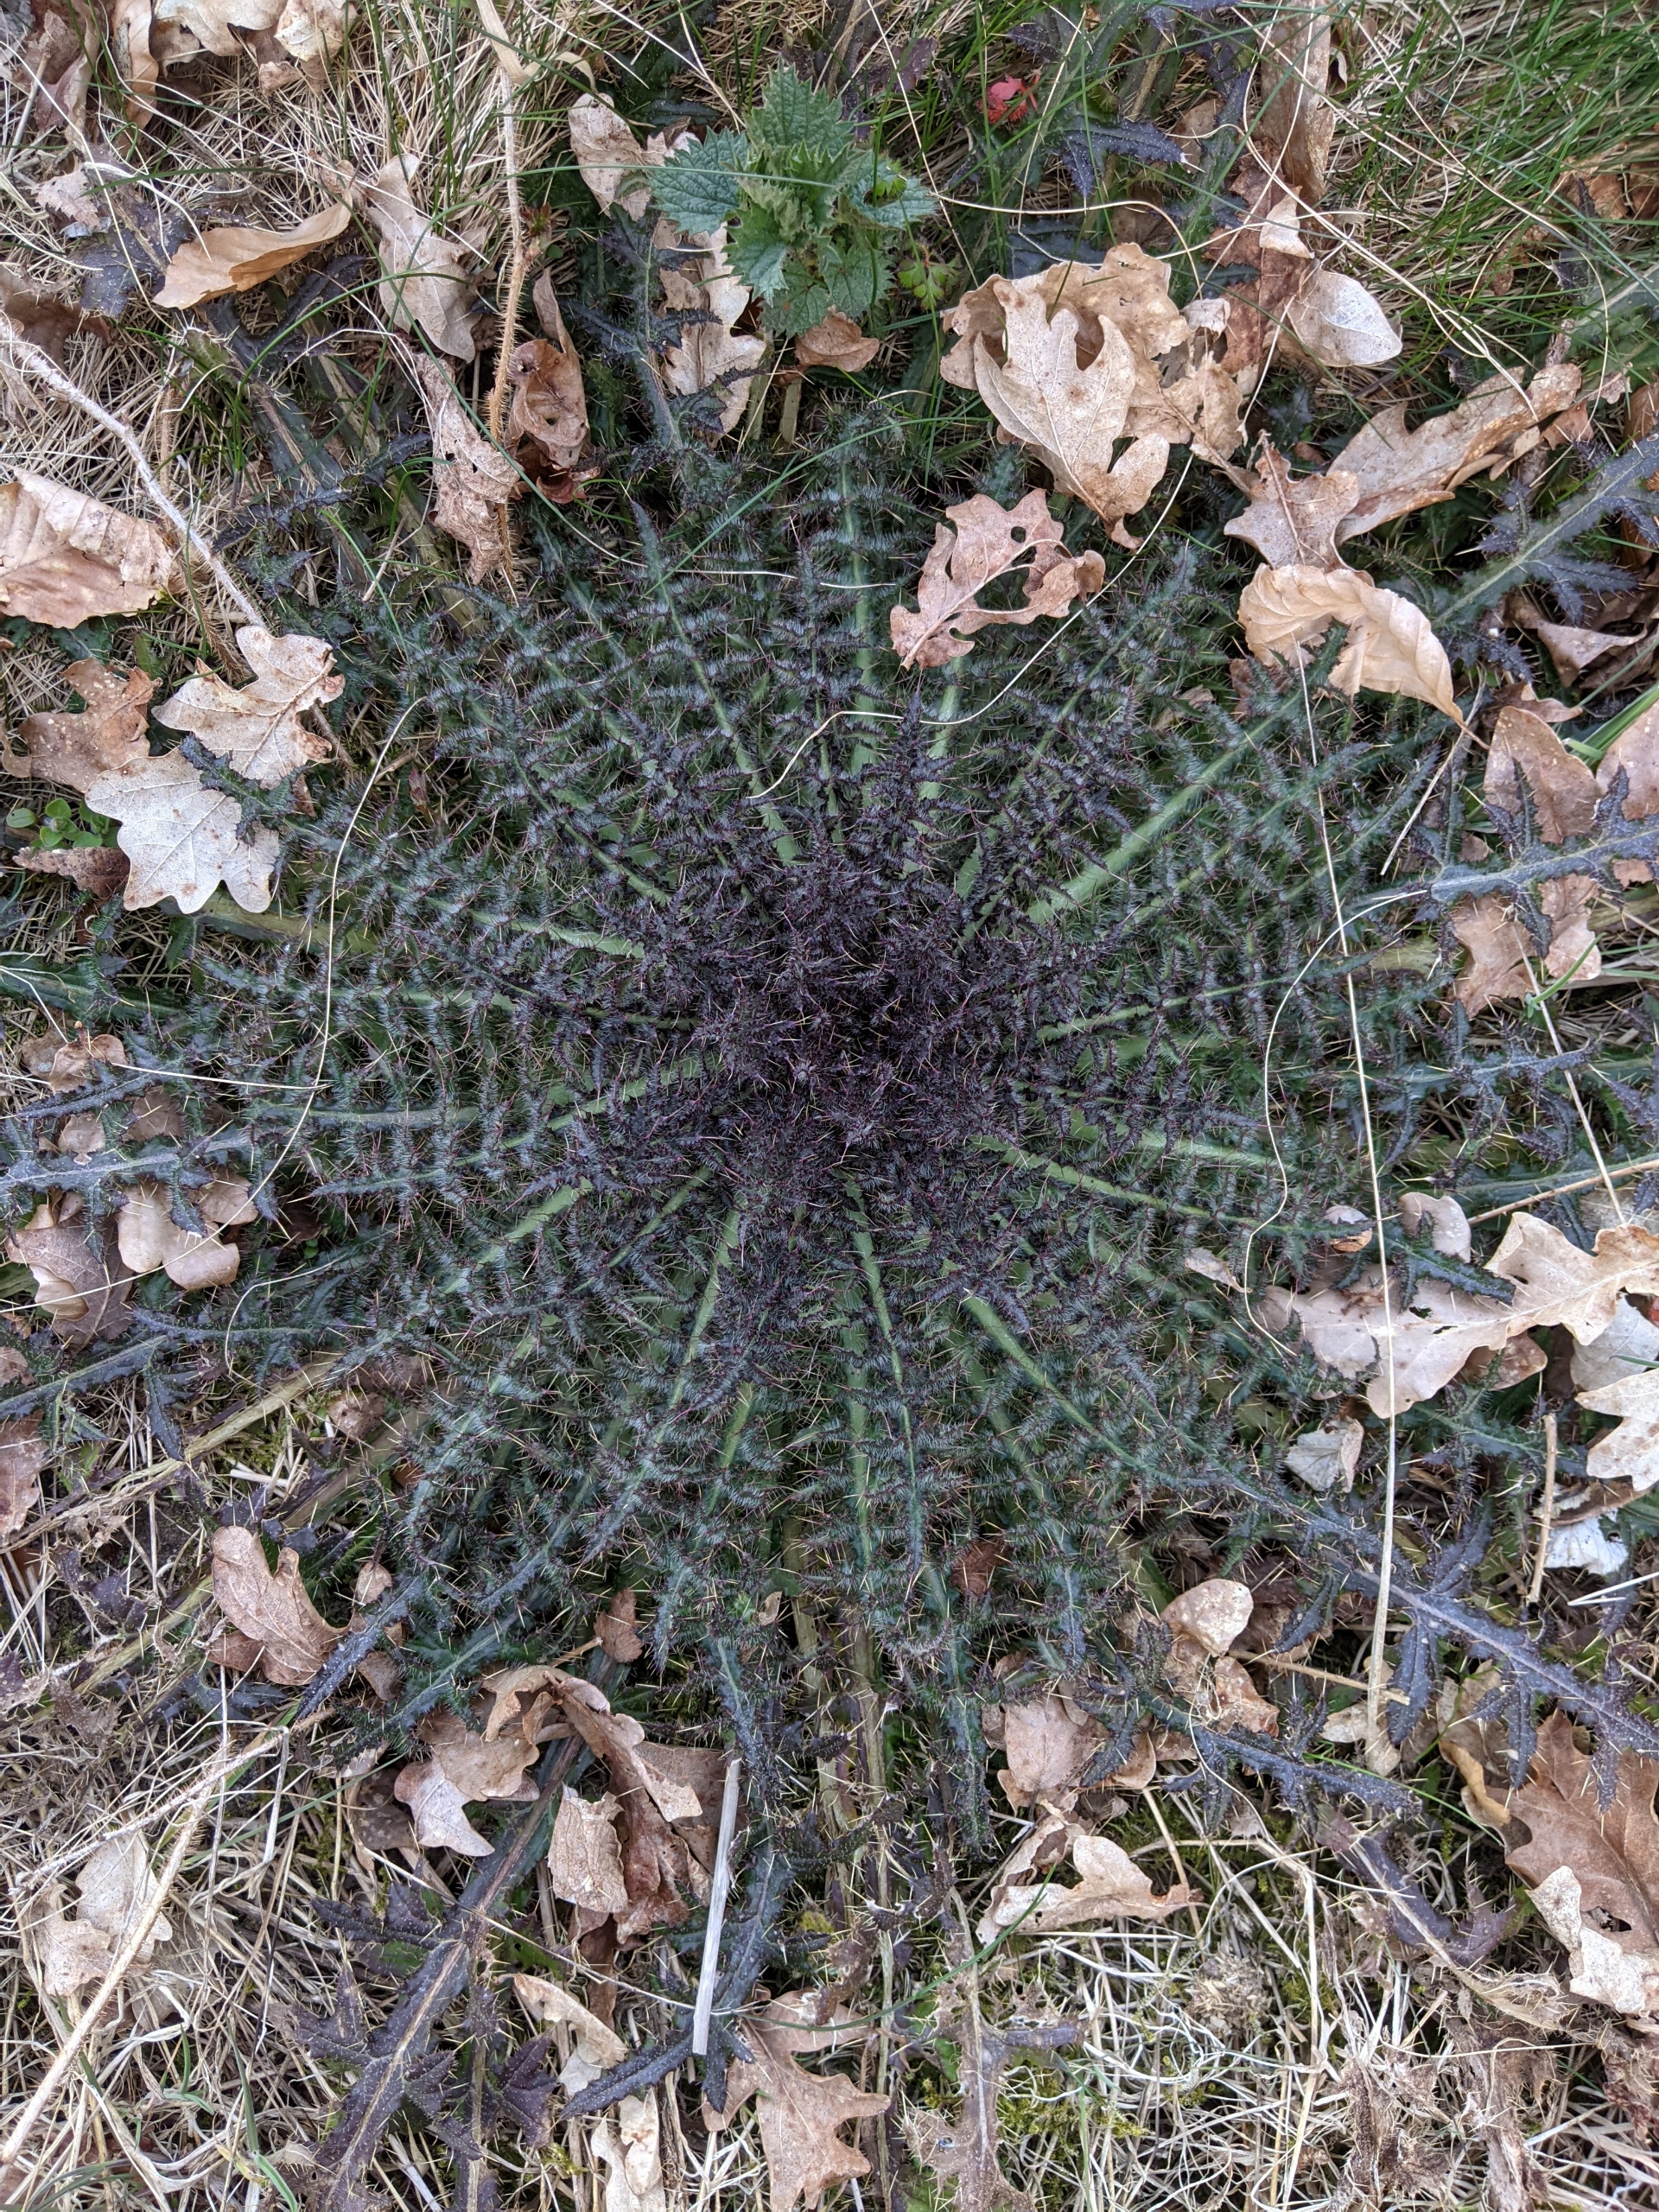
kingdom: Plantae
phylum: Tracheophyta
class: Magnoliopsida
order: Asterales
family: Asteraceae
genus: Cirsium
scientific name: Cirsium palustre
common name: Kær-tidsel
